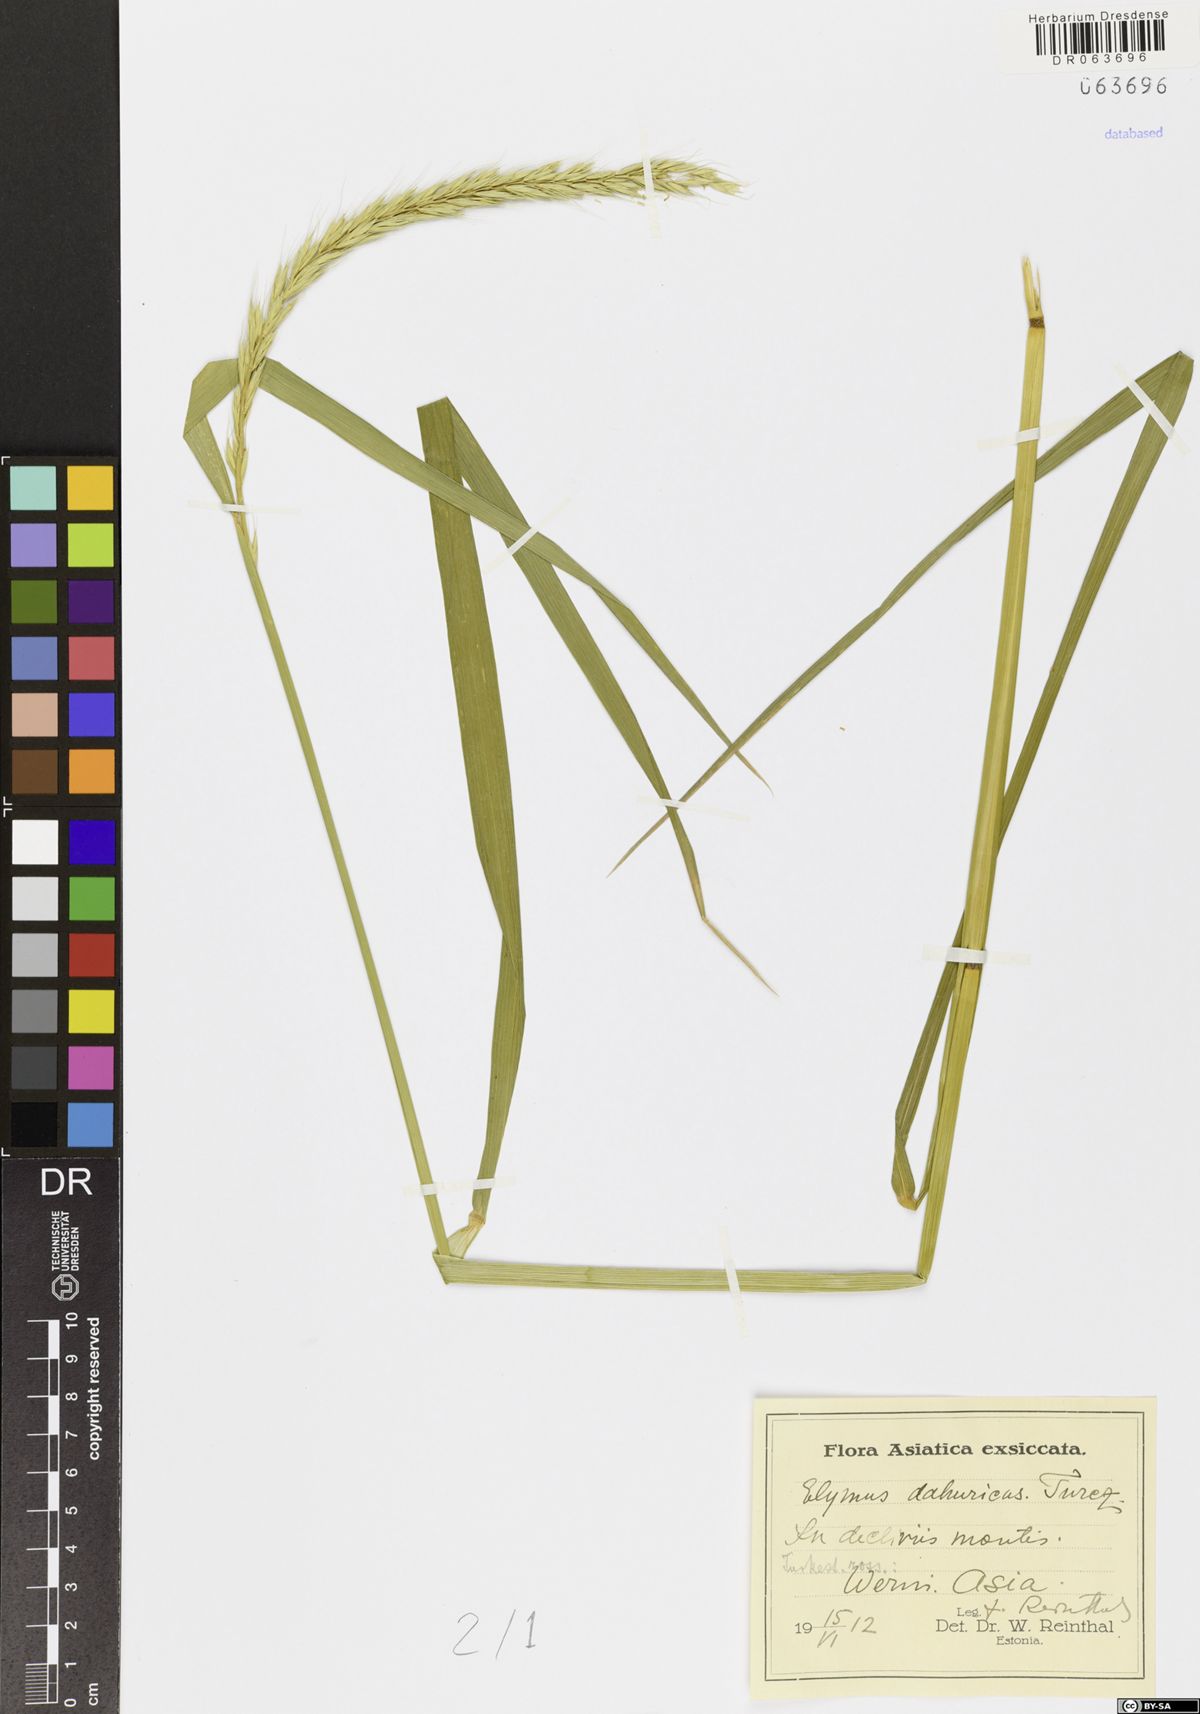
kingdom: Plantae
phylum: Tracheophyta
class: Liliopsida
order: Poales
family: Poaceae
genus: Elymus
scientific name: Elymus dahuricus
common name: Dahurian wild rye
